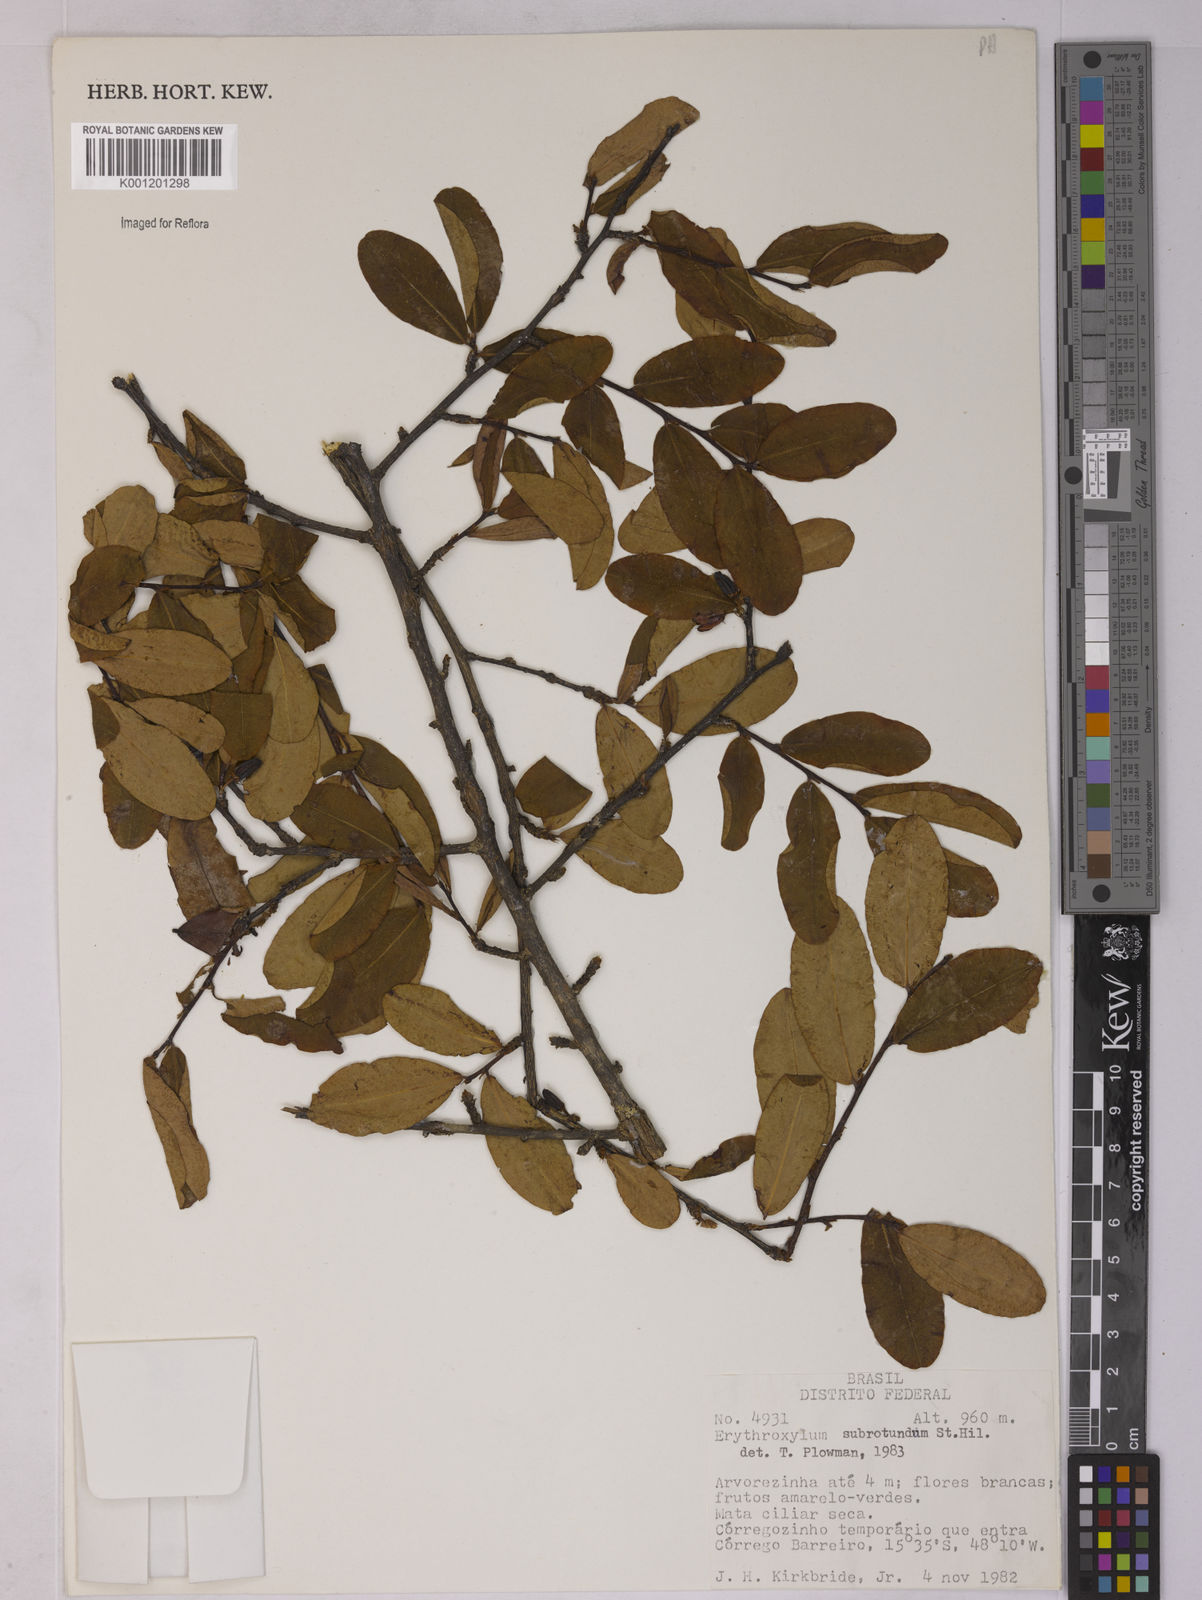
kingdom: Plantae
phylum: Tracheophyta
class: Magnoliopsida
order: Malpighiales
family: Erythroxylaceae
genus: Erythroxylum
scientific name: Erythroxylum subrotundum
